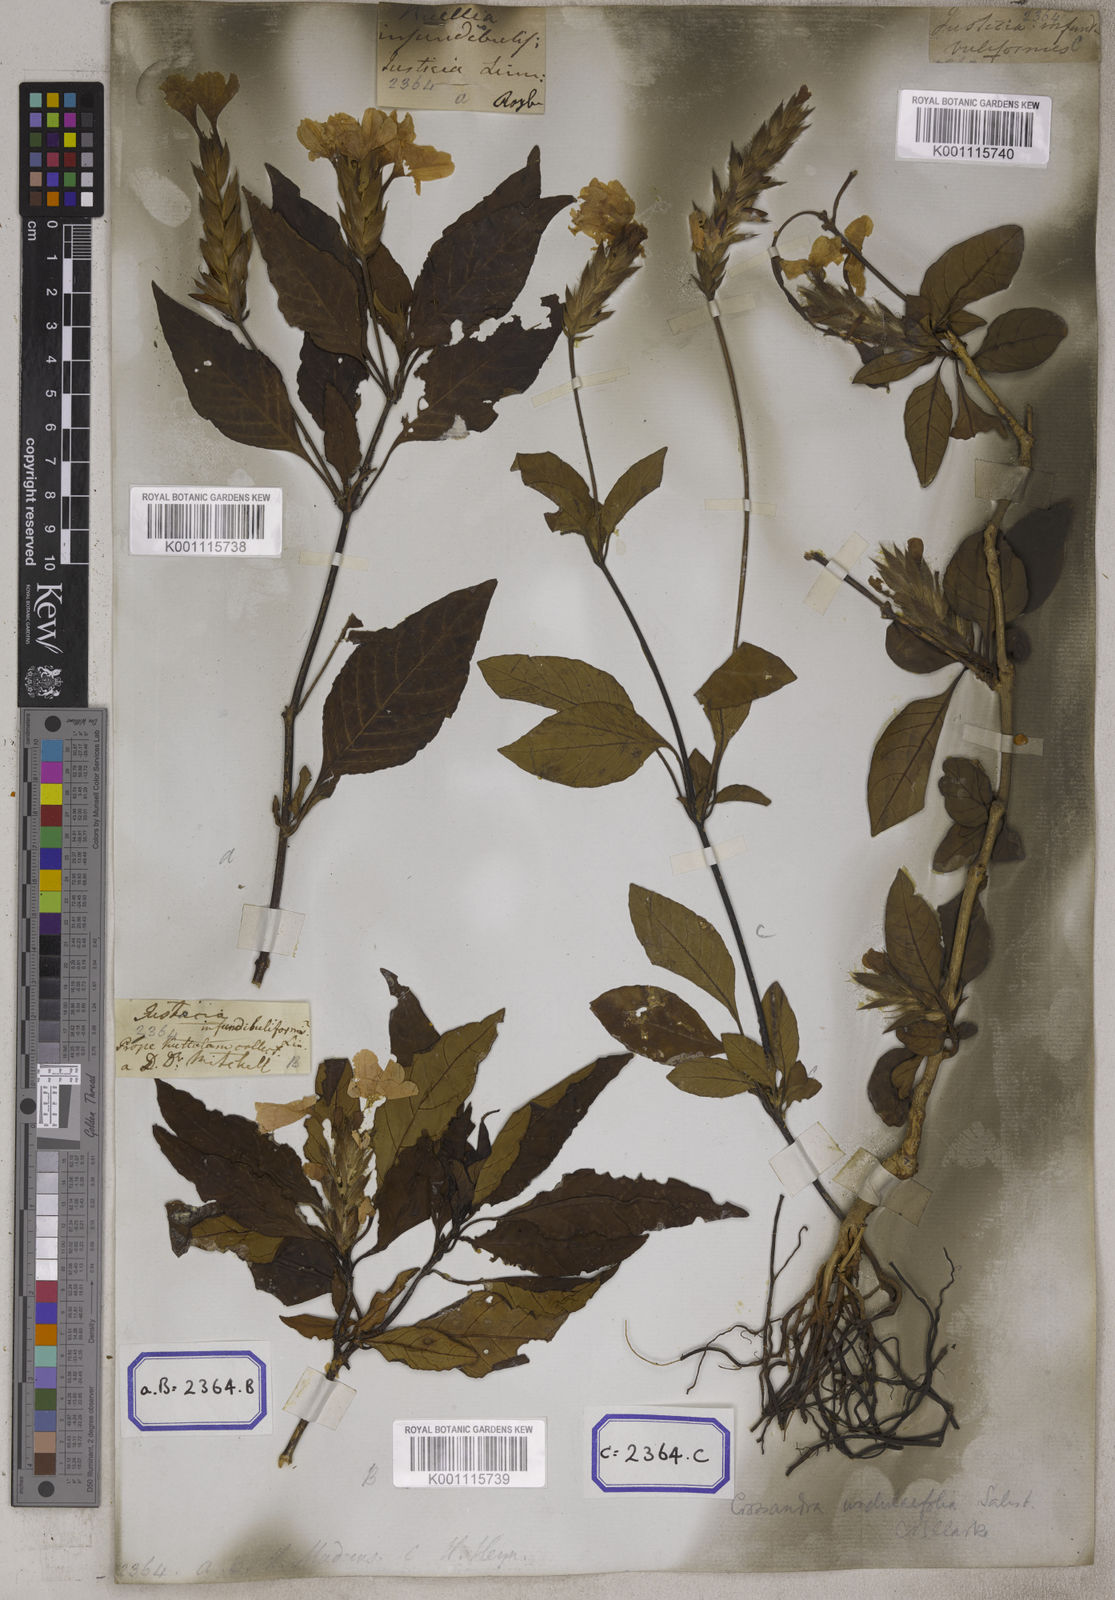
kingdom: Plantae
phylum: Tracheophyta
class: Magnoliopsida
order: Lamiales
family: Acanthaceae
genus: Crossandra
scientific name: Crossandra infundibuliformis
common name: Firecracker-flower
